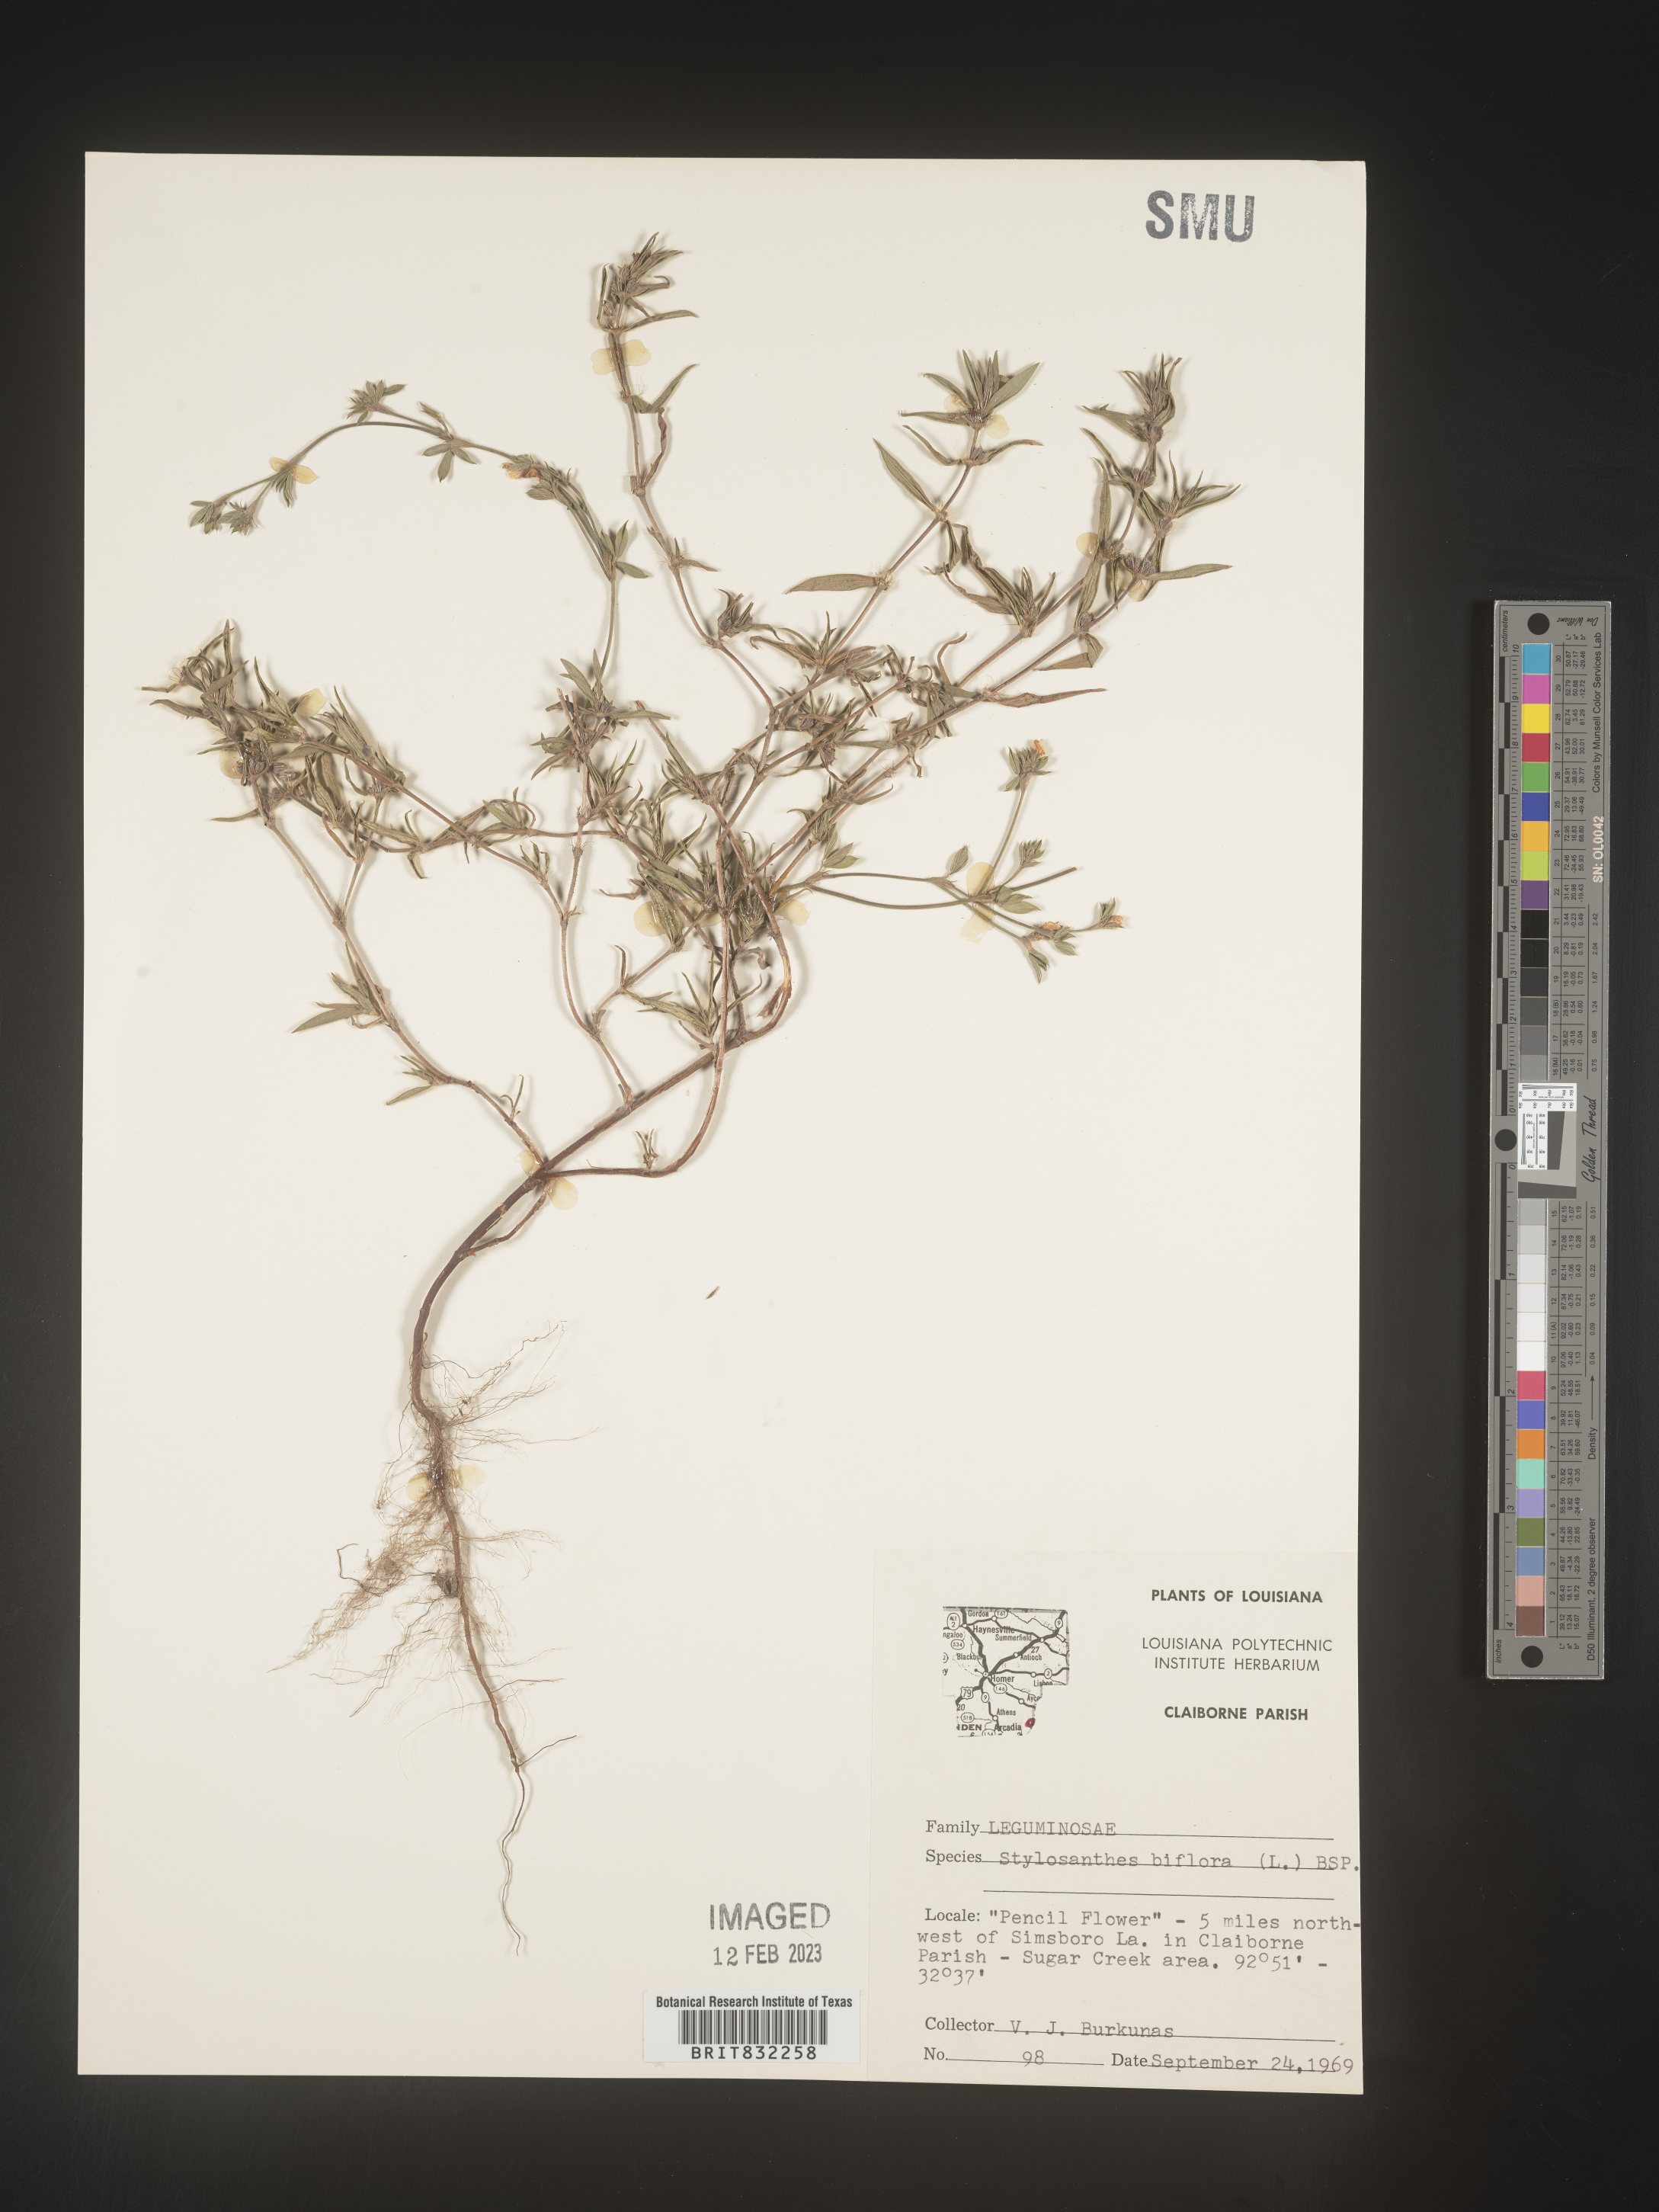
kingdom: Plantae
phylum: Tracheophyta
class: Magnoliopsida
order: Fabales
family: Fabaceae
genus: Stylosanthes
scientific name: Stylosanthes biflora
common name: Two-flower pencil-flower
